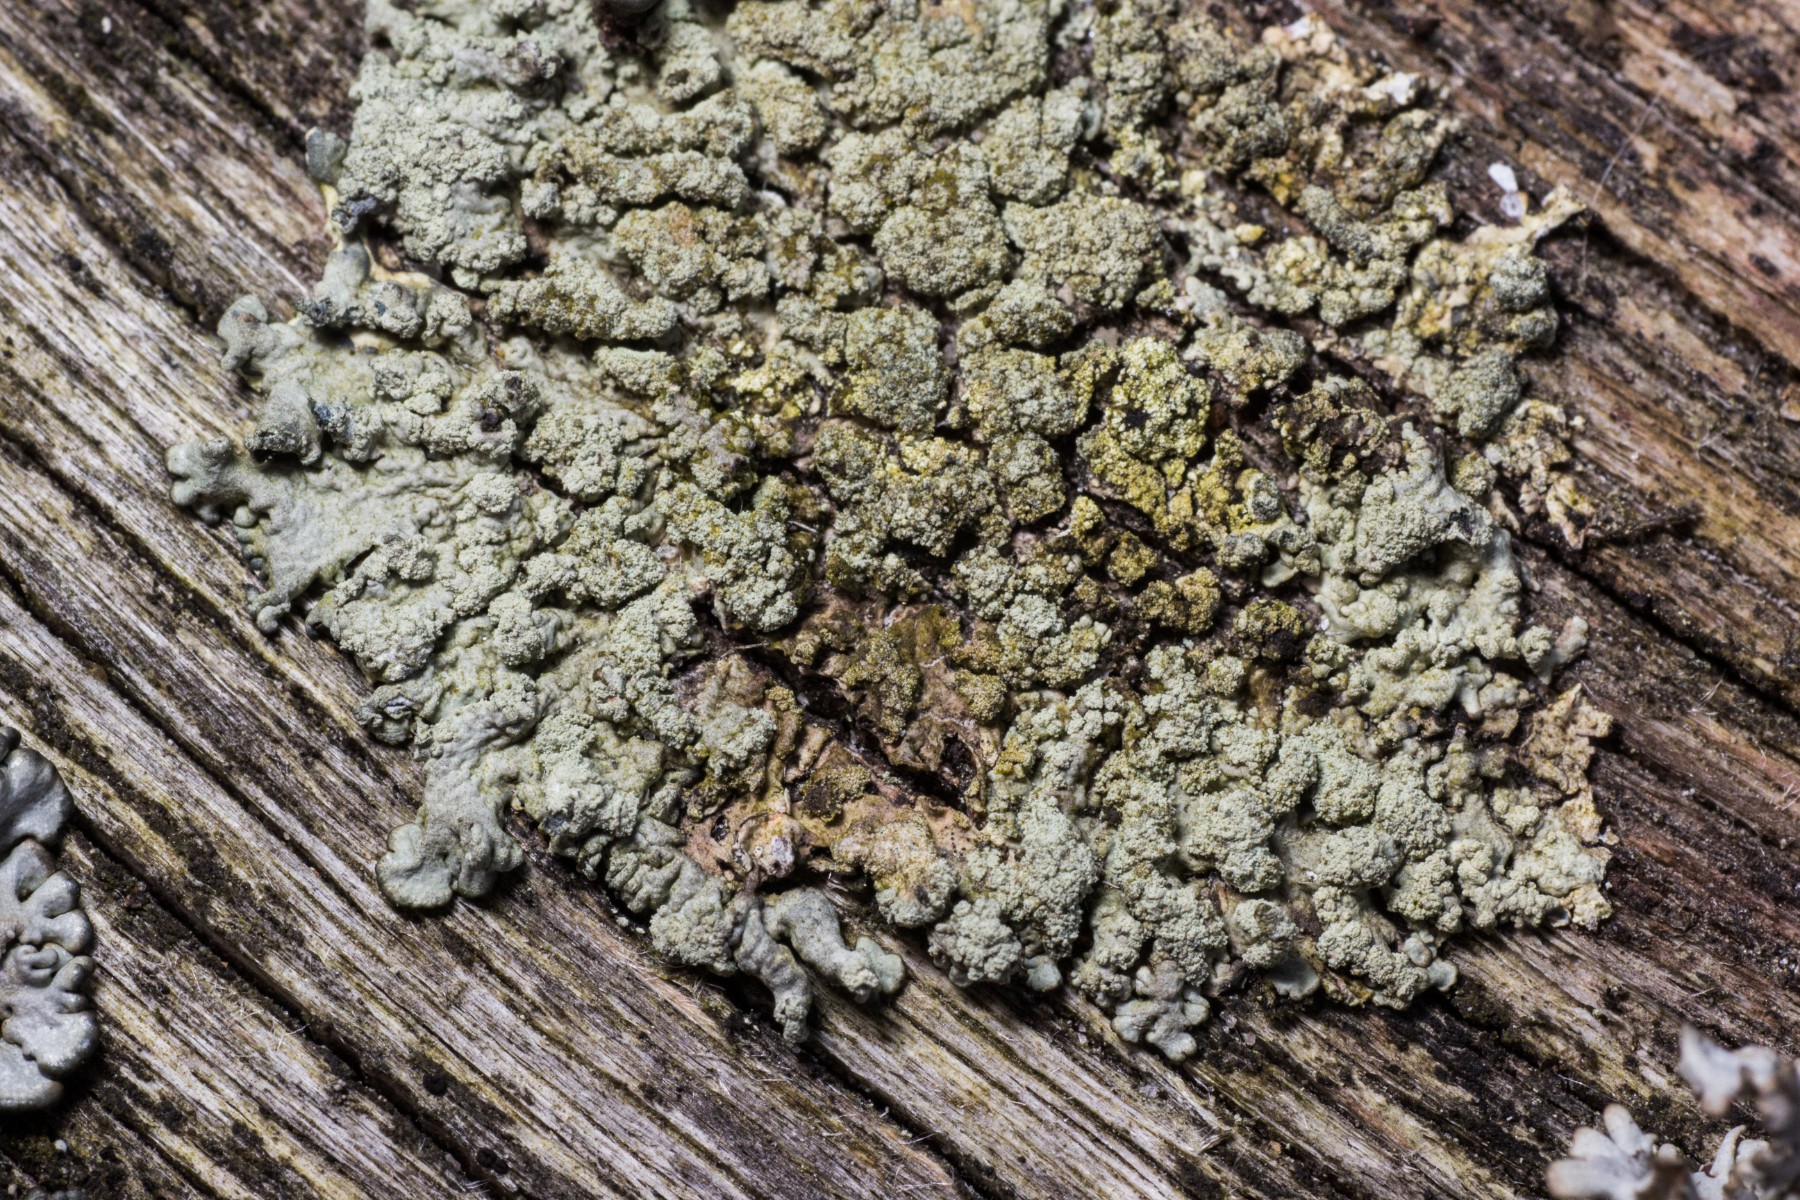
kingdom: Fungi
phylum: Ascomycota
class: Lecanoromycetes
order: Lecanorales
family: Parmeliaceae
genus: Parmeliopsis
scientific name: Parmeliopsis ambigua
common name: gul stolpelav
